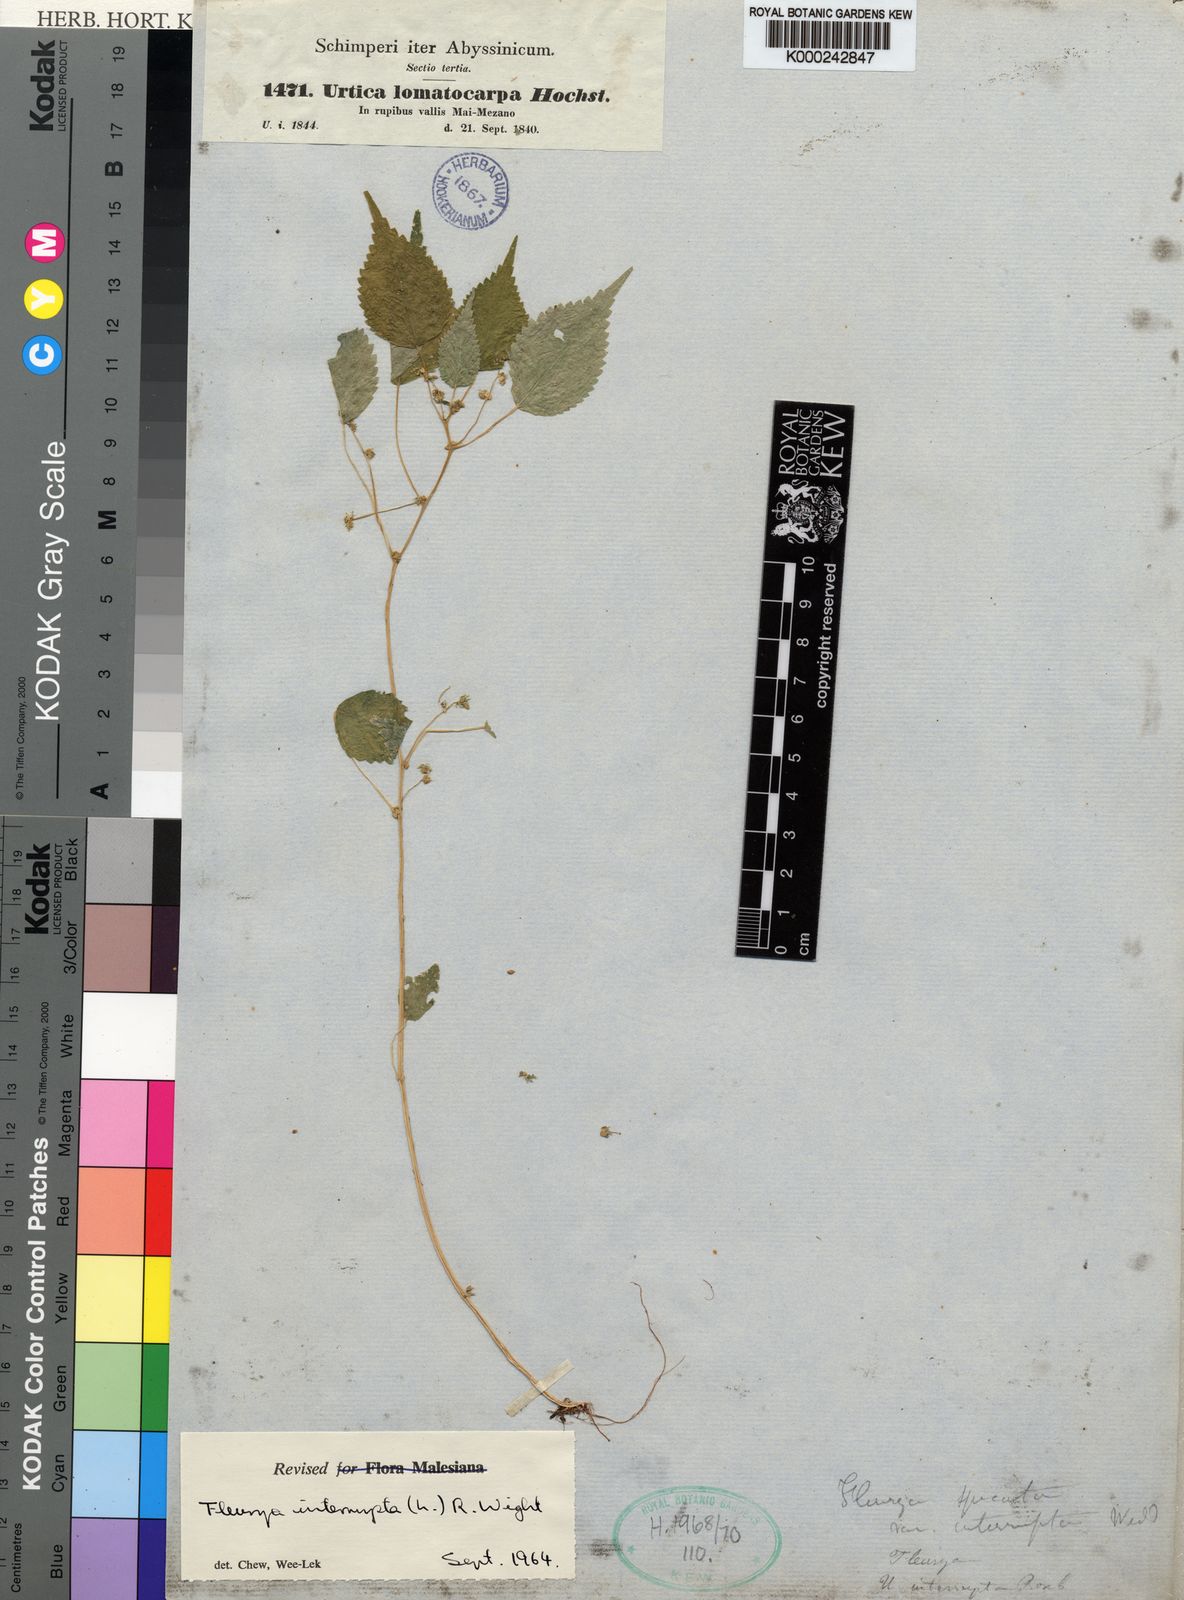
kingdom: Plantae
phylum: Tracheophyta
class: Magnoliopsida
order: Rosales
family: Urticaceae
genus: Laportea
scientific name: Laportea interrupta
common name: Hawaiian wood-nettle
